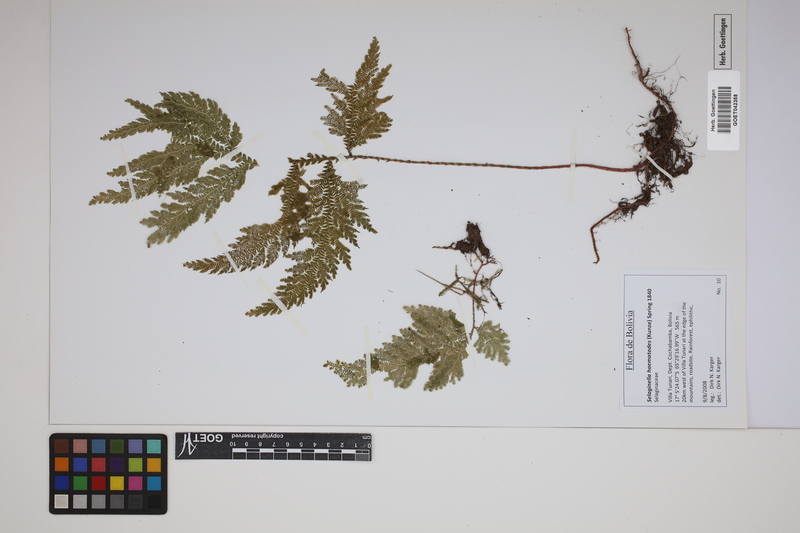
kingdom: Plantae
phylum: Tracheophyta
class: Lycopodiopsida
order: Selaginellales
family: Selaginellaceae
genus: Selaginella
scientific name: Selaginella haematodes
